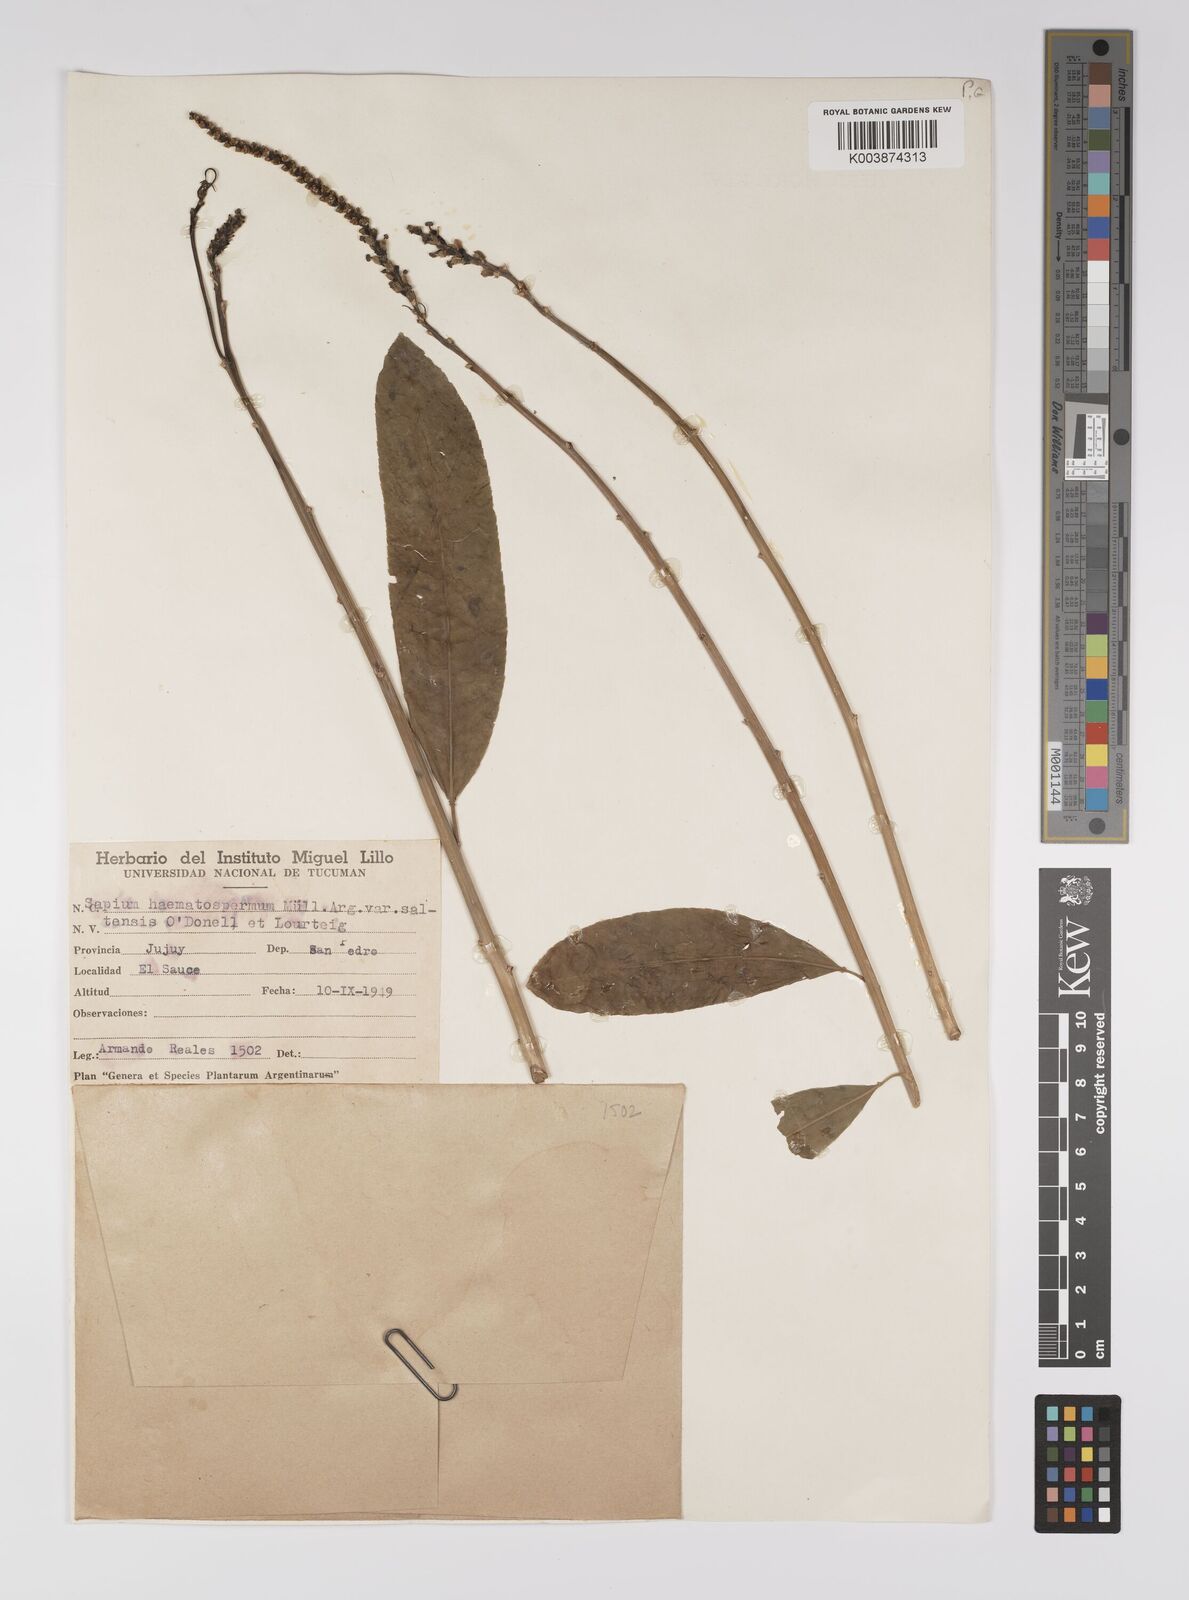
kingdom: Plantae
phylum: Tracheophyta
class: Magnoliopsida
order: Malpighiales
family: Euphorbiaceae
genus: Sapium
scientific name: Sapium glandulosum
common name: Milktree
